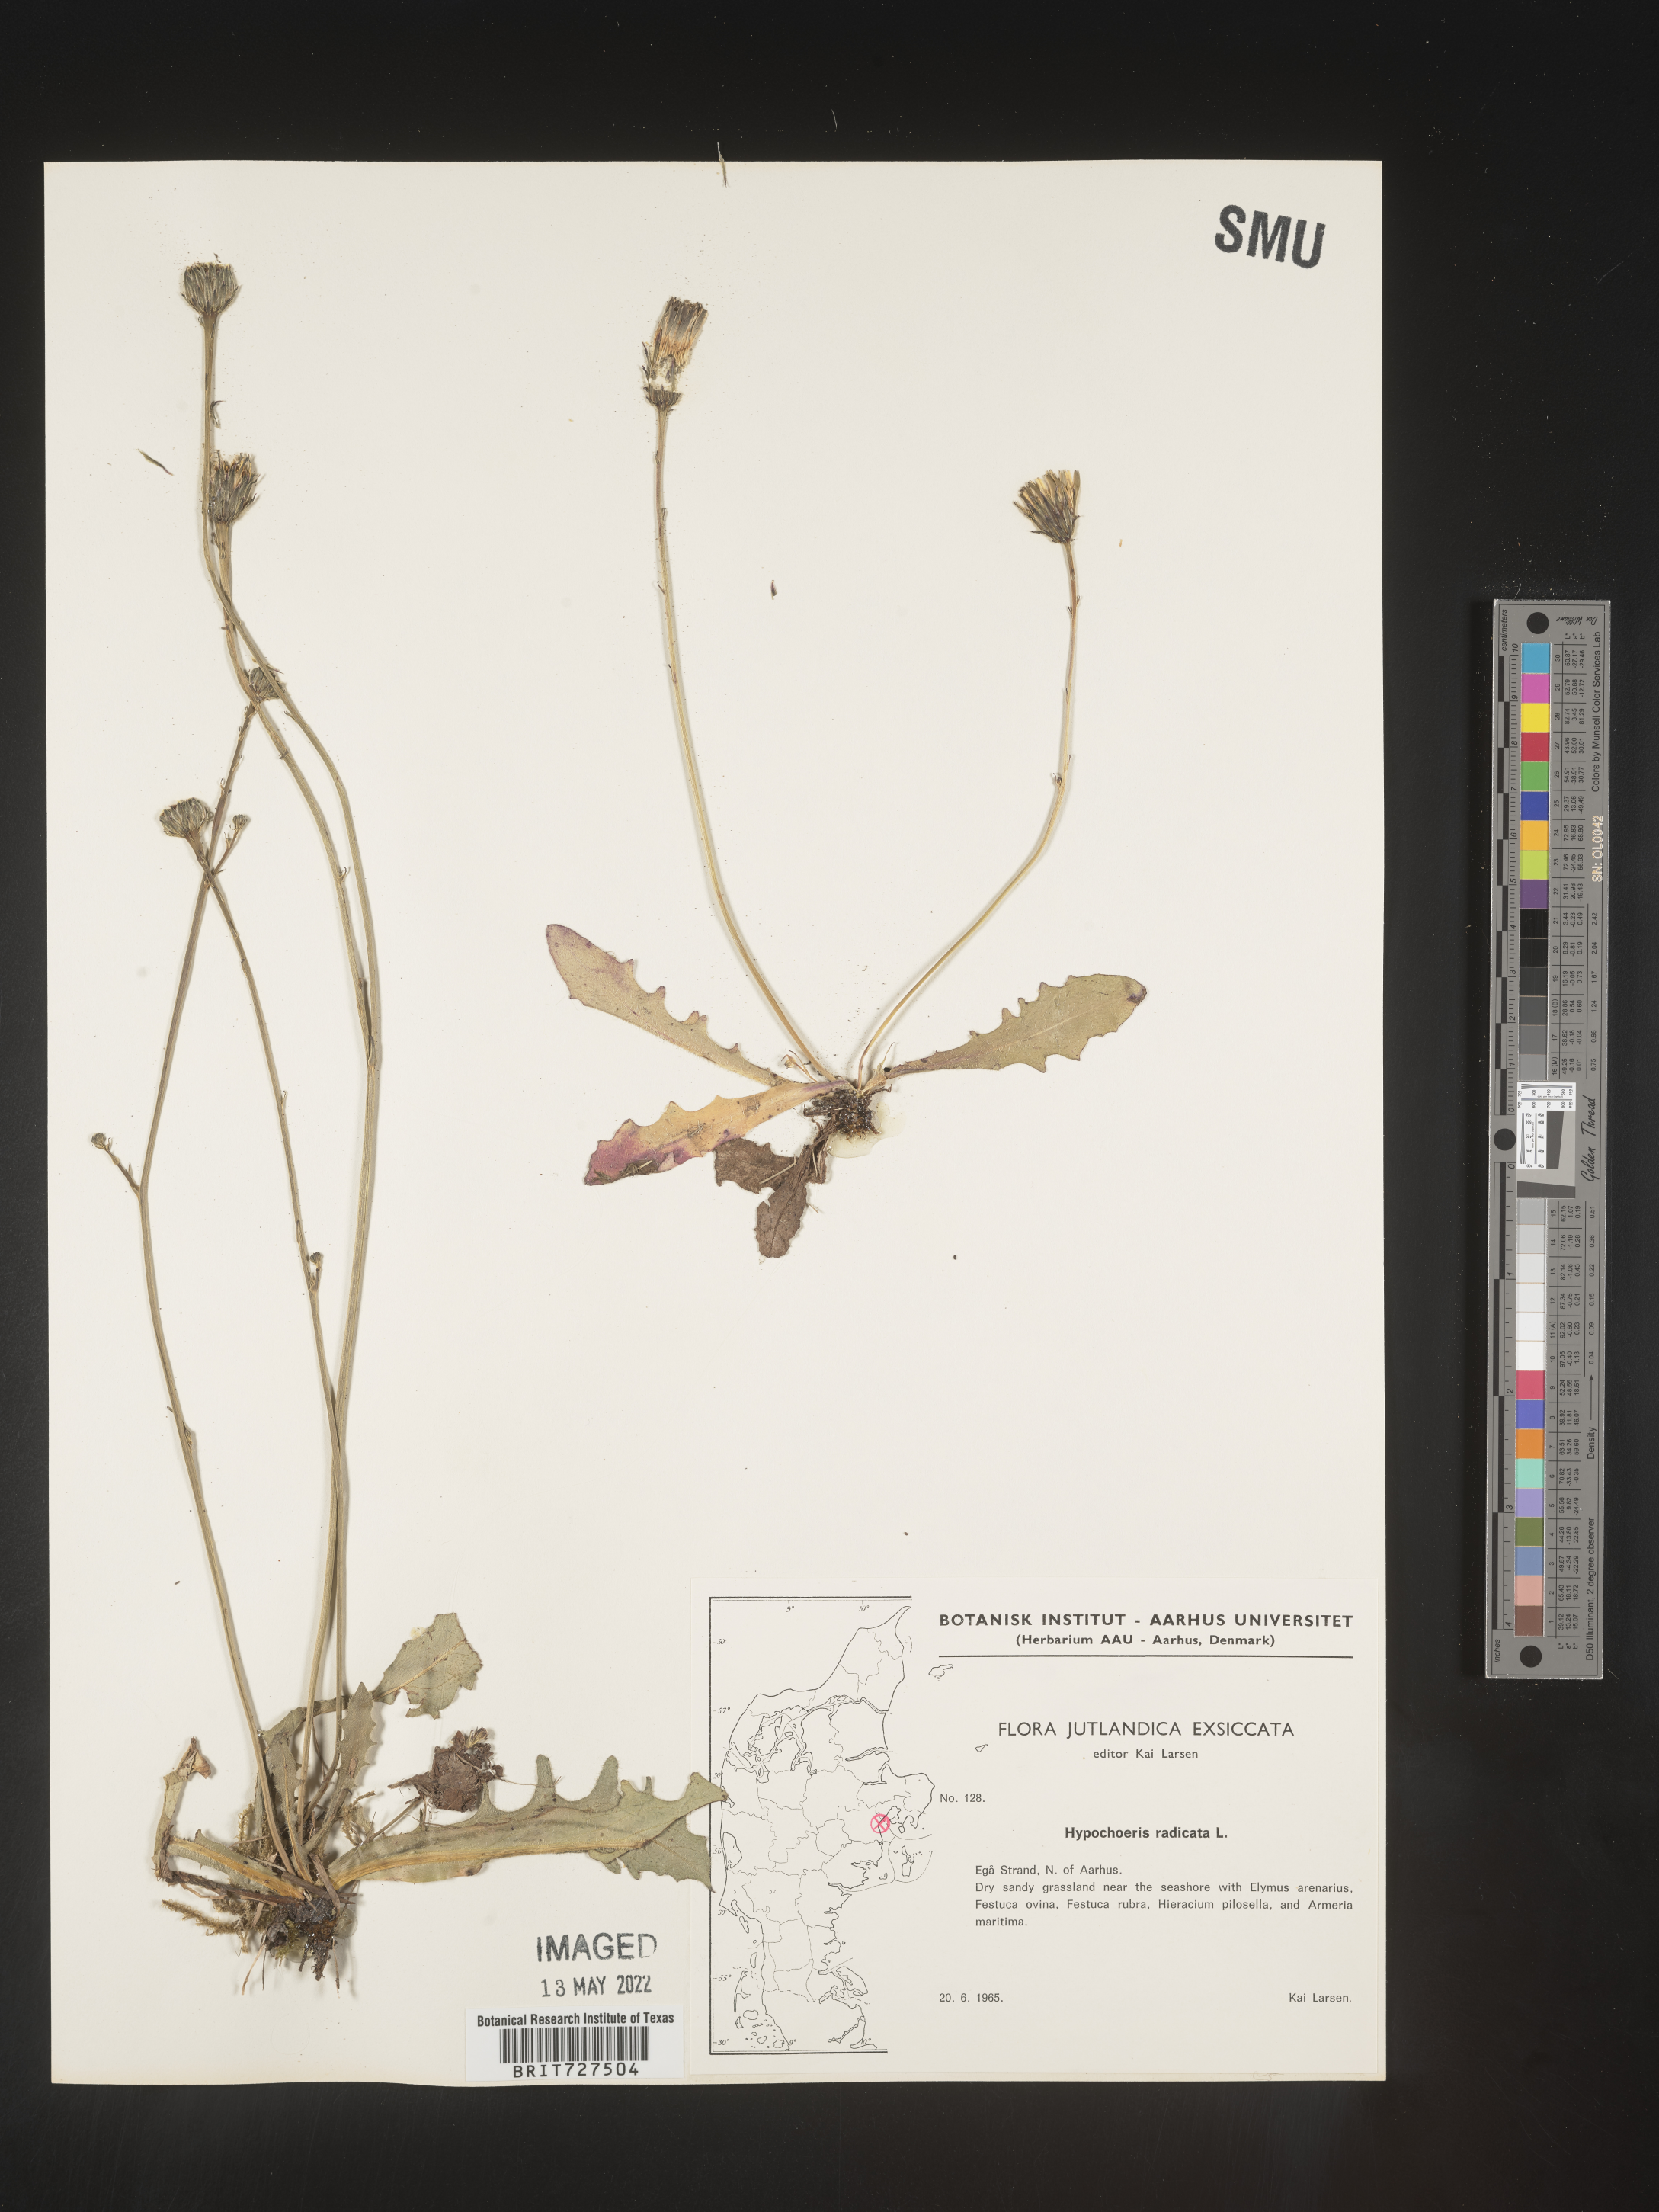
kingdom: Plantae
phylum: Tracheophyta
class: Magnoliopsida
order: Asterales
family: Asteraceae
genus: Hypochaeris
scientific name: Hypochaeris
